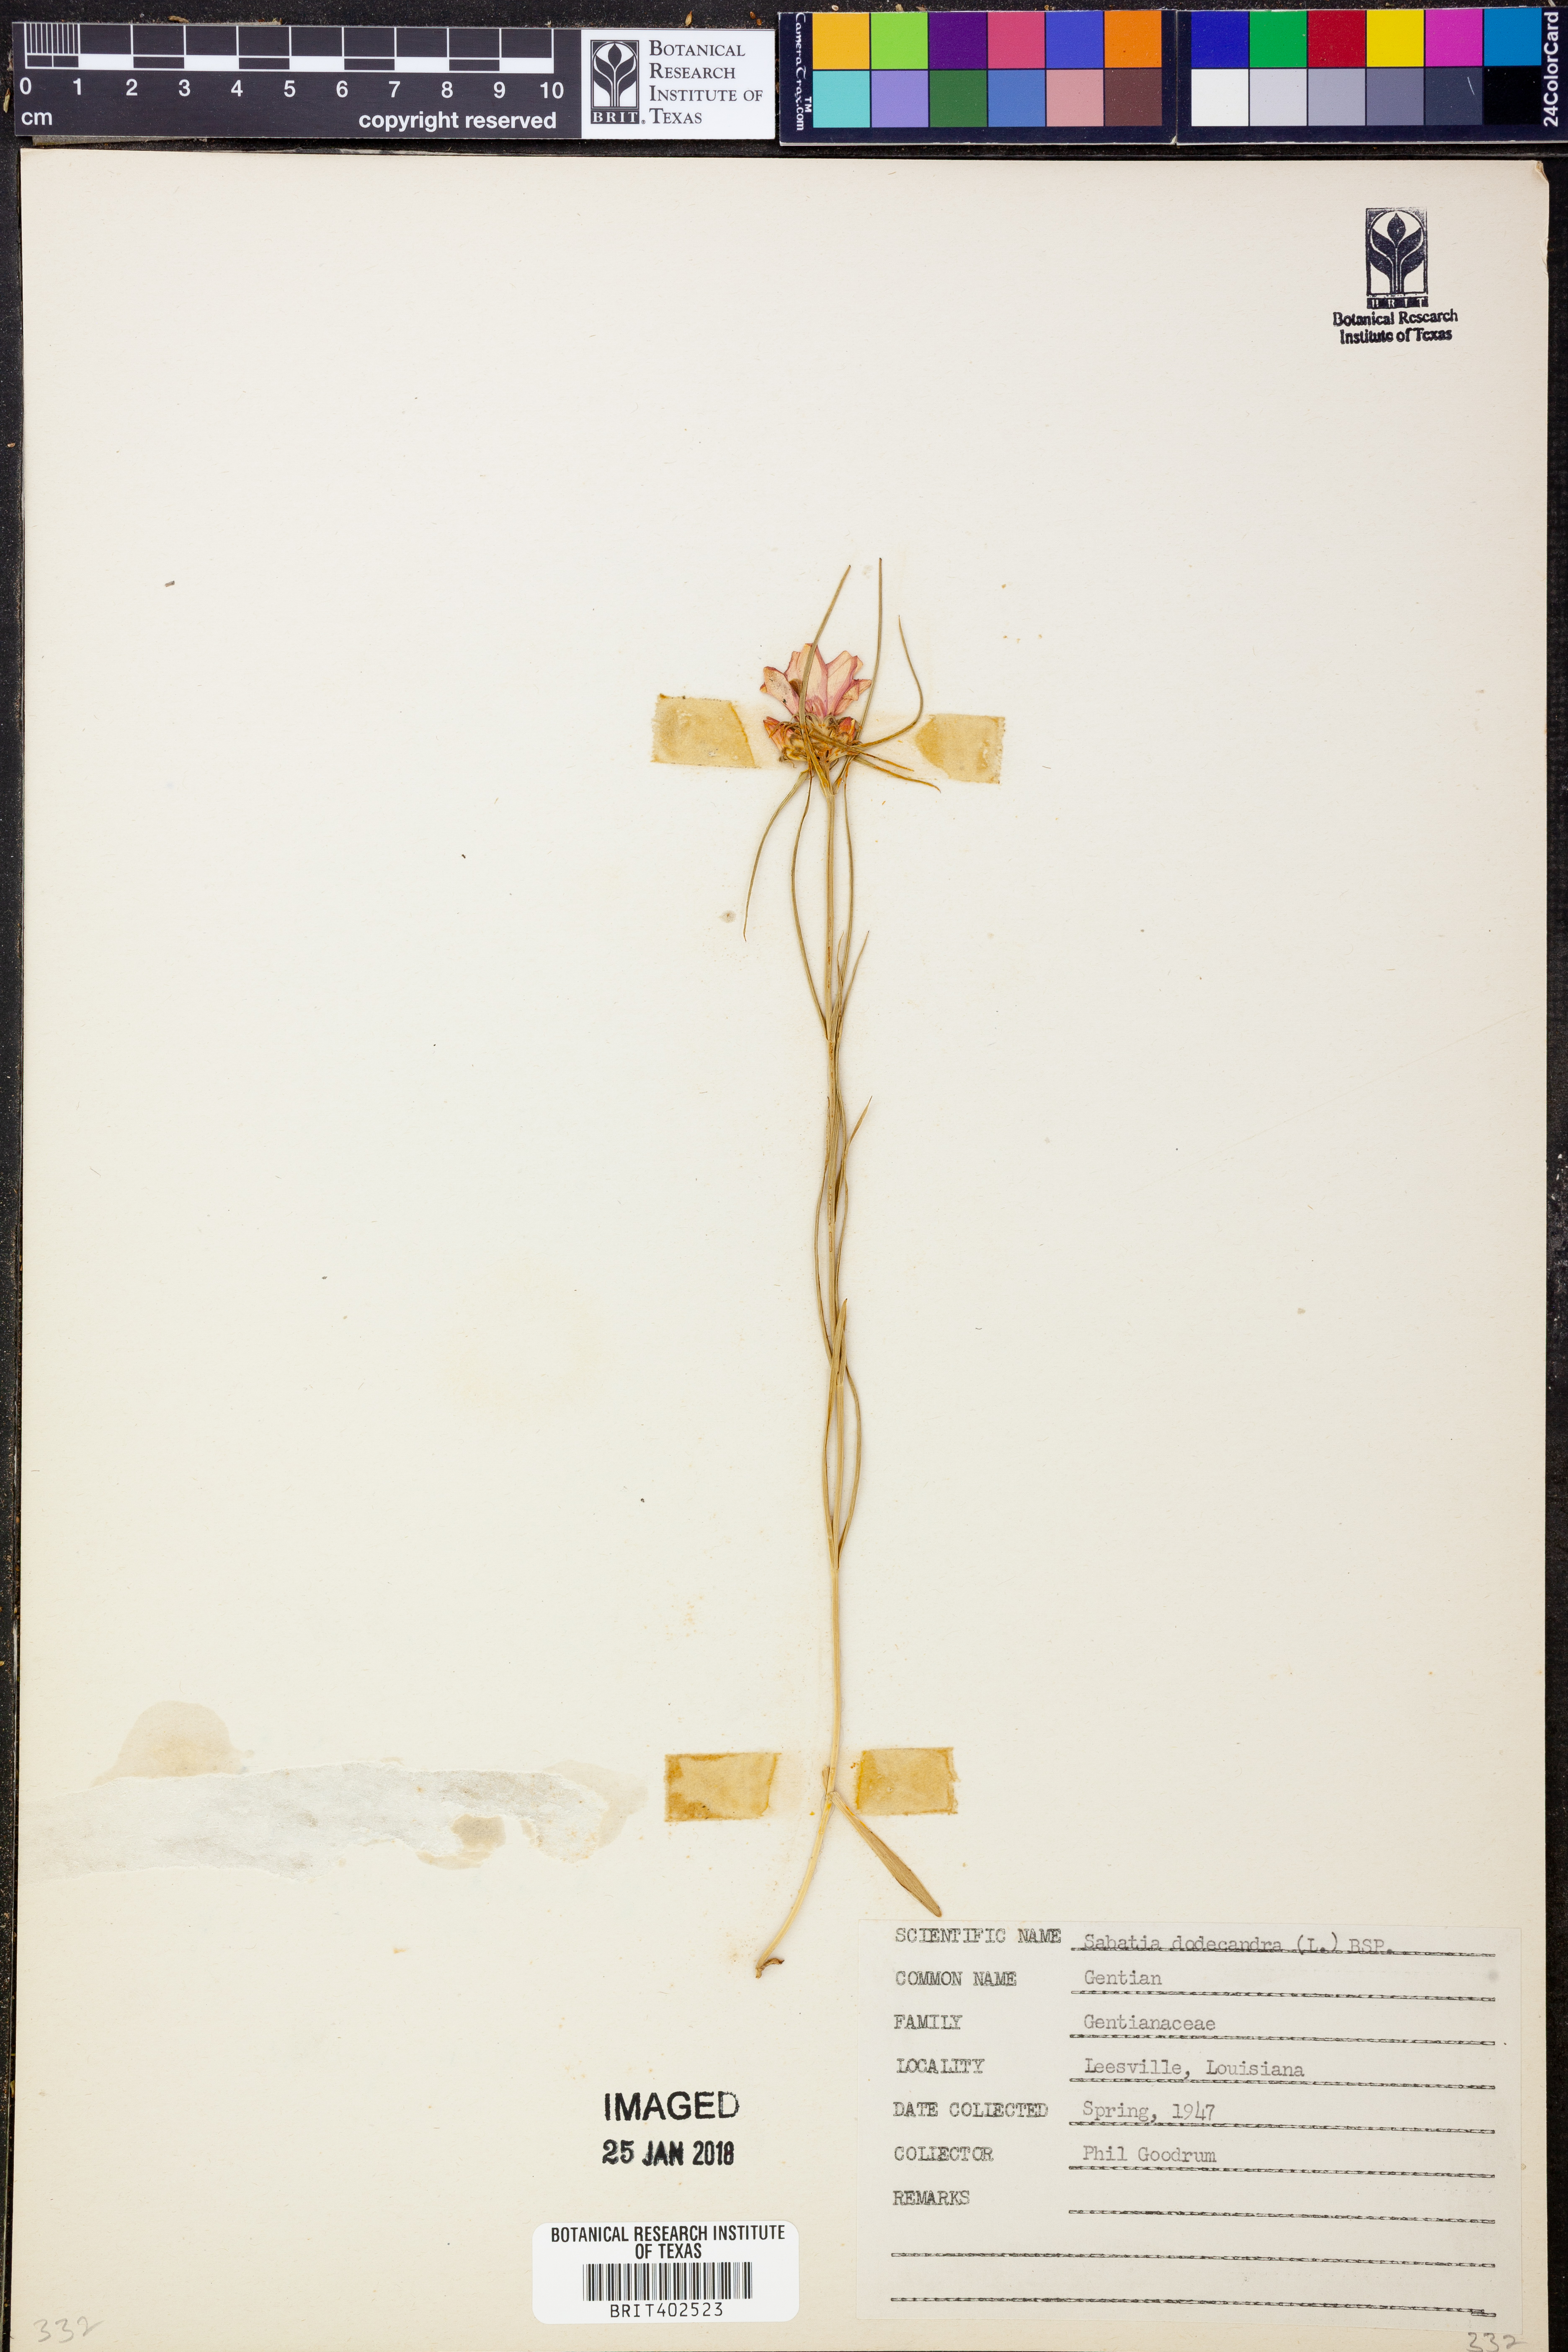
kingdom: Plantae
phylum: Tracheophyta
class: Magnoliopsida
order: Gentianales
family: Gentianaceae
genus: Sabatia
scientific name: Sabatia dodecandra
